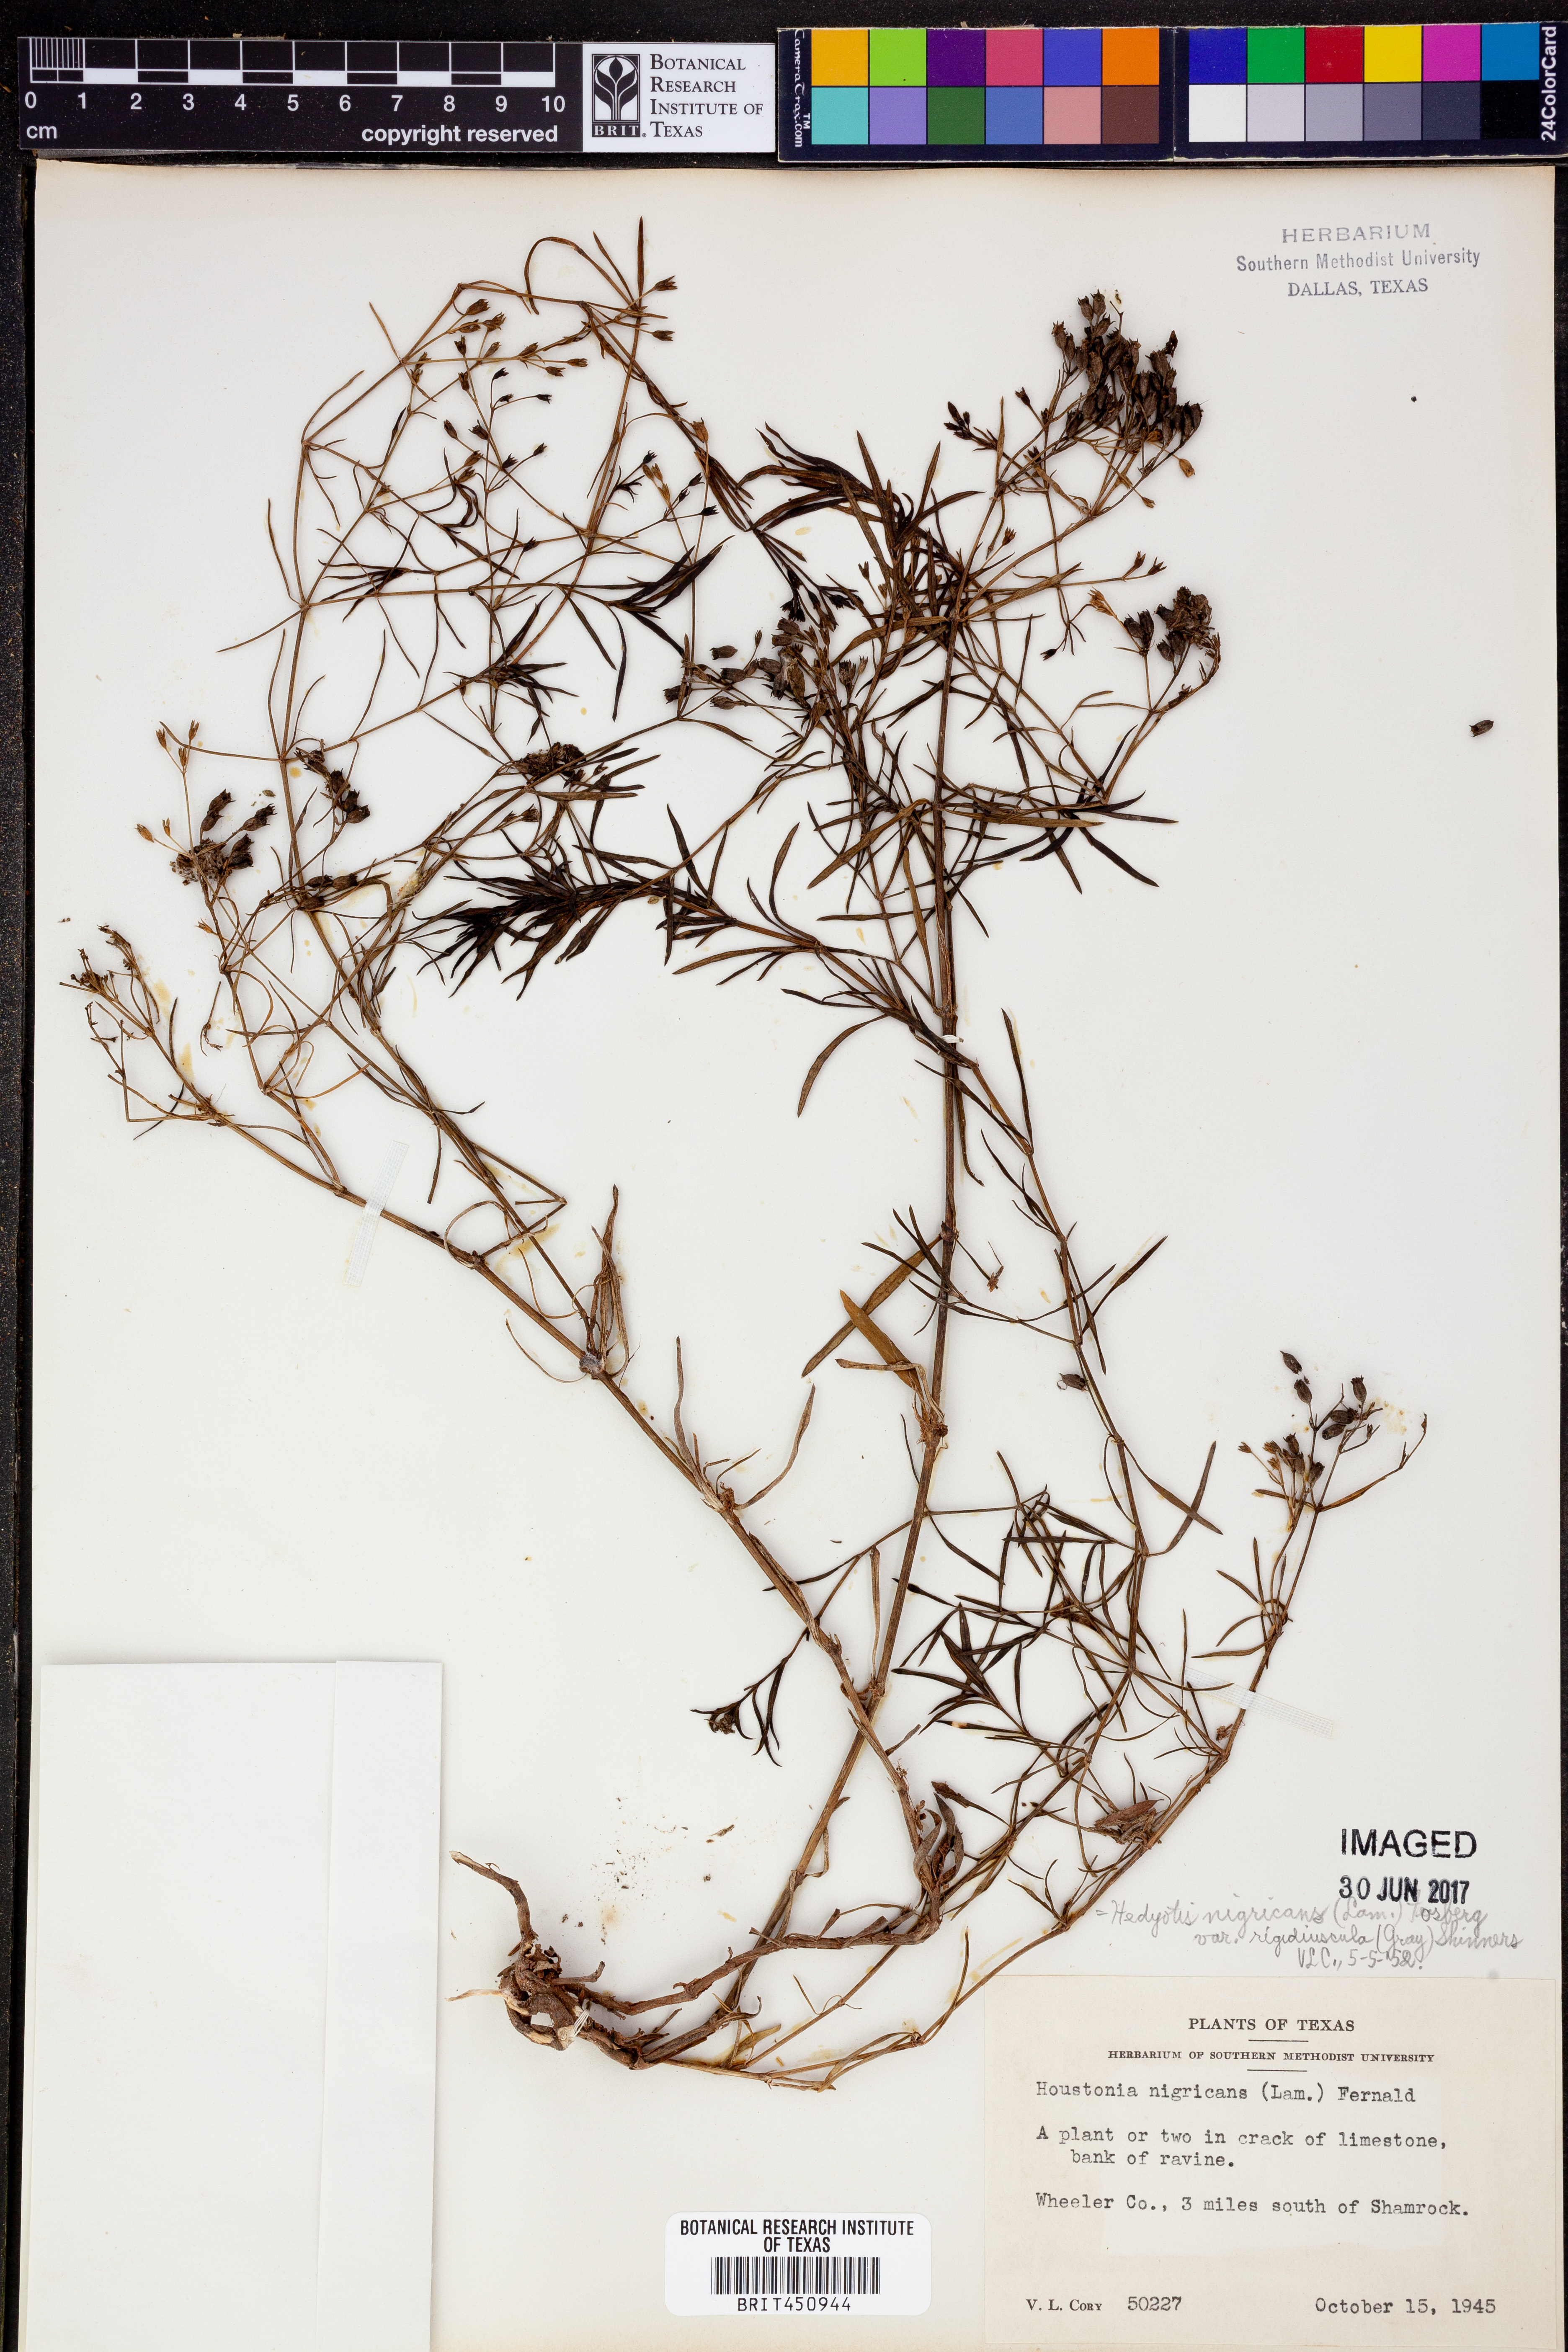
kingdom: Plantae
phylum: Tracheophyta
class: Magnoliopsida
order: Gentianales
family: Rubiaceae
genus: Houstonia
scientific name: Houstonia purpurea
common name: Summer bluet
